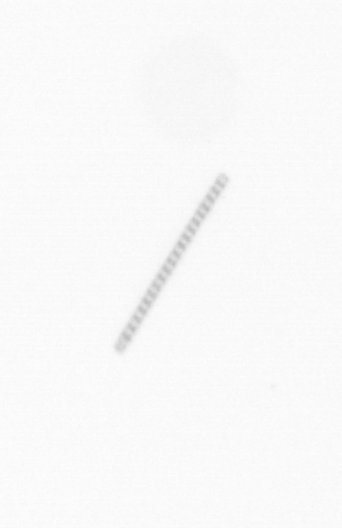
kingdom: Chromista
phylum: Ochrophyta
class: Bacillariophyceae
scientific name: Bacillariophyceae
